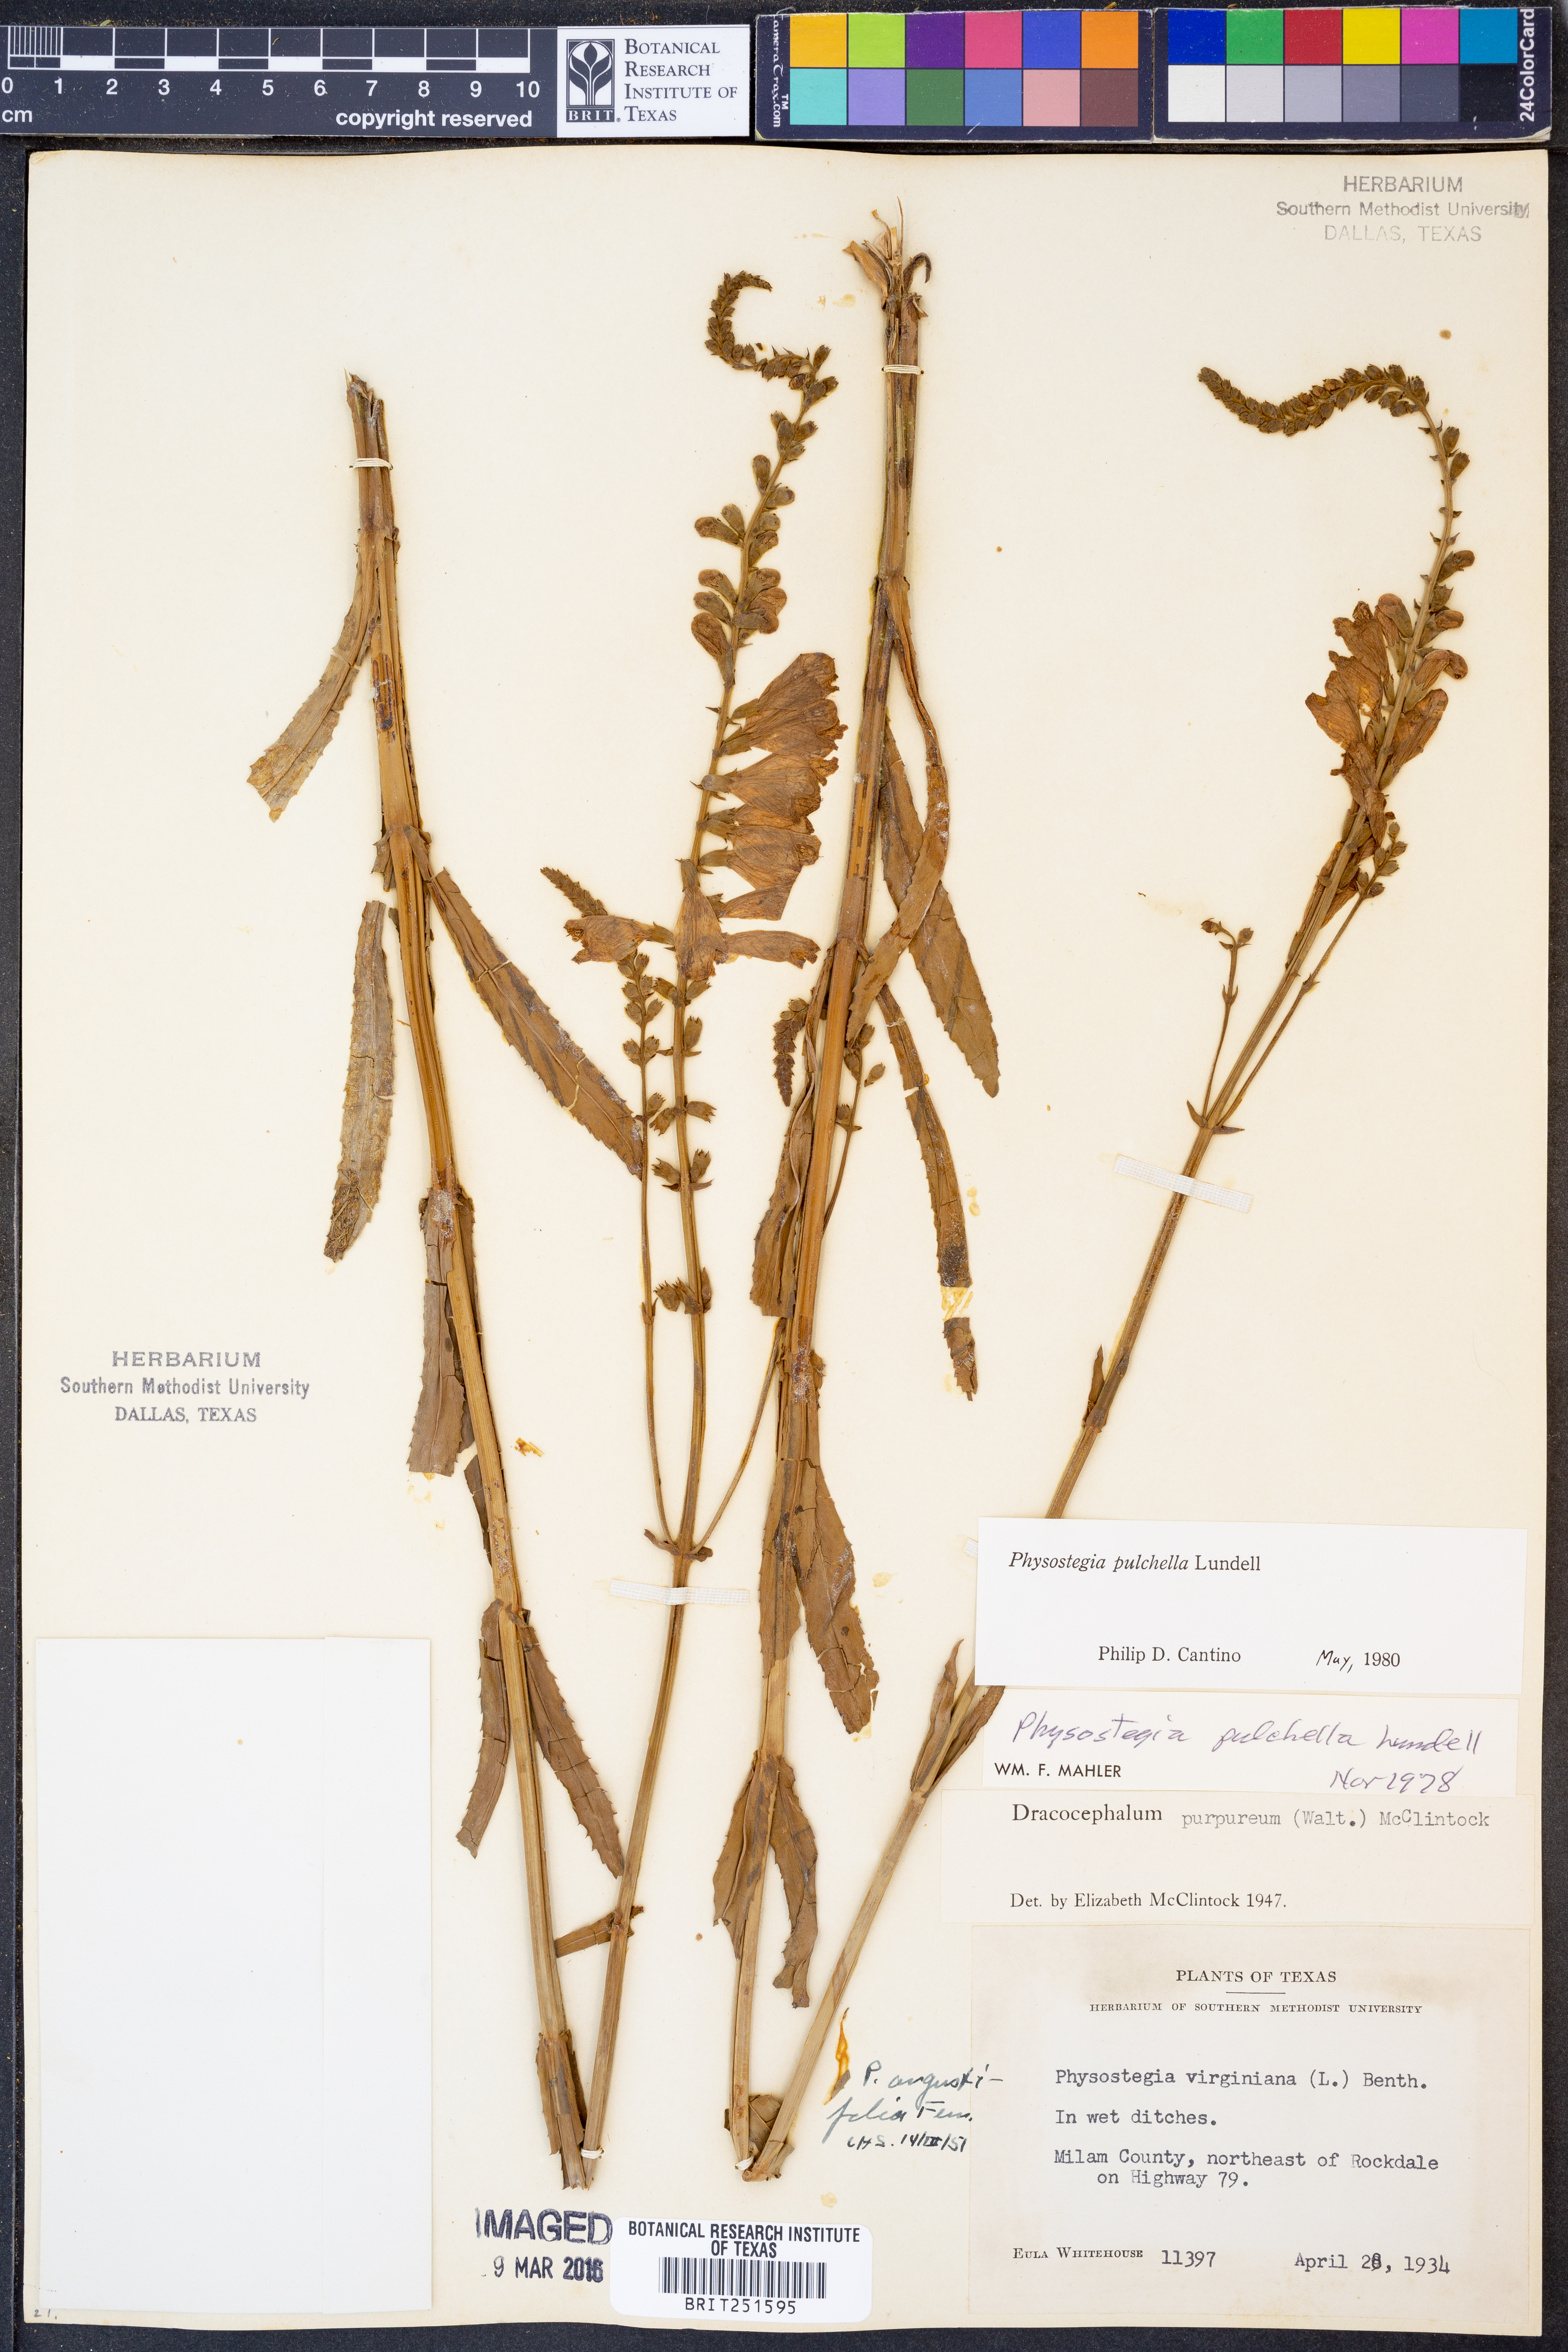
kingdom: Plantae
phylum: Tracheophyta
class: Magnoliopsida
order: Lamiales
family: Lamiaceae
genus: Physostegia
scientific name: Physostegia pulchella
